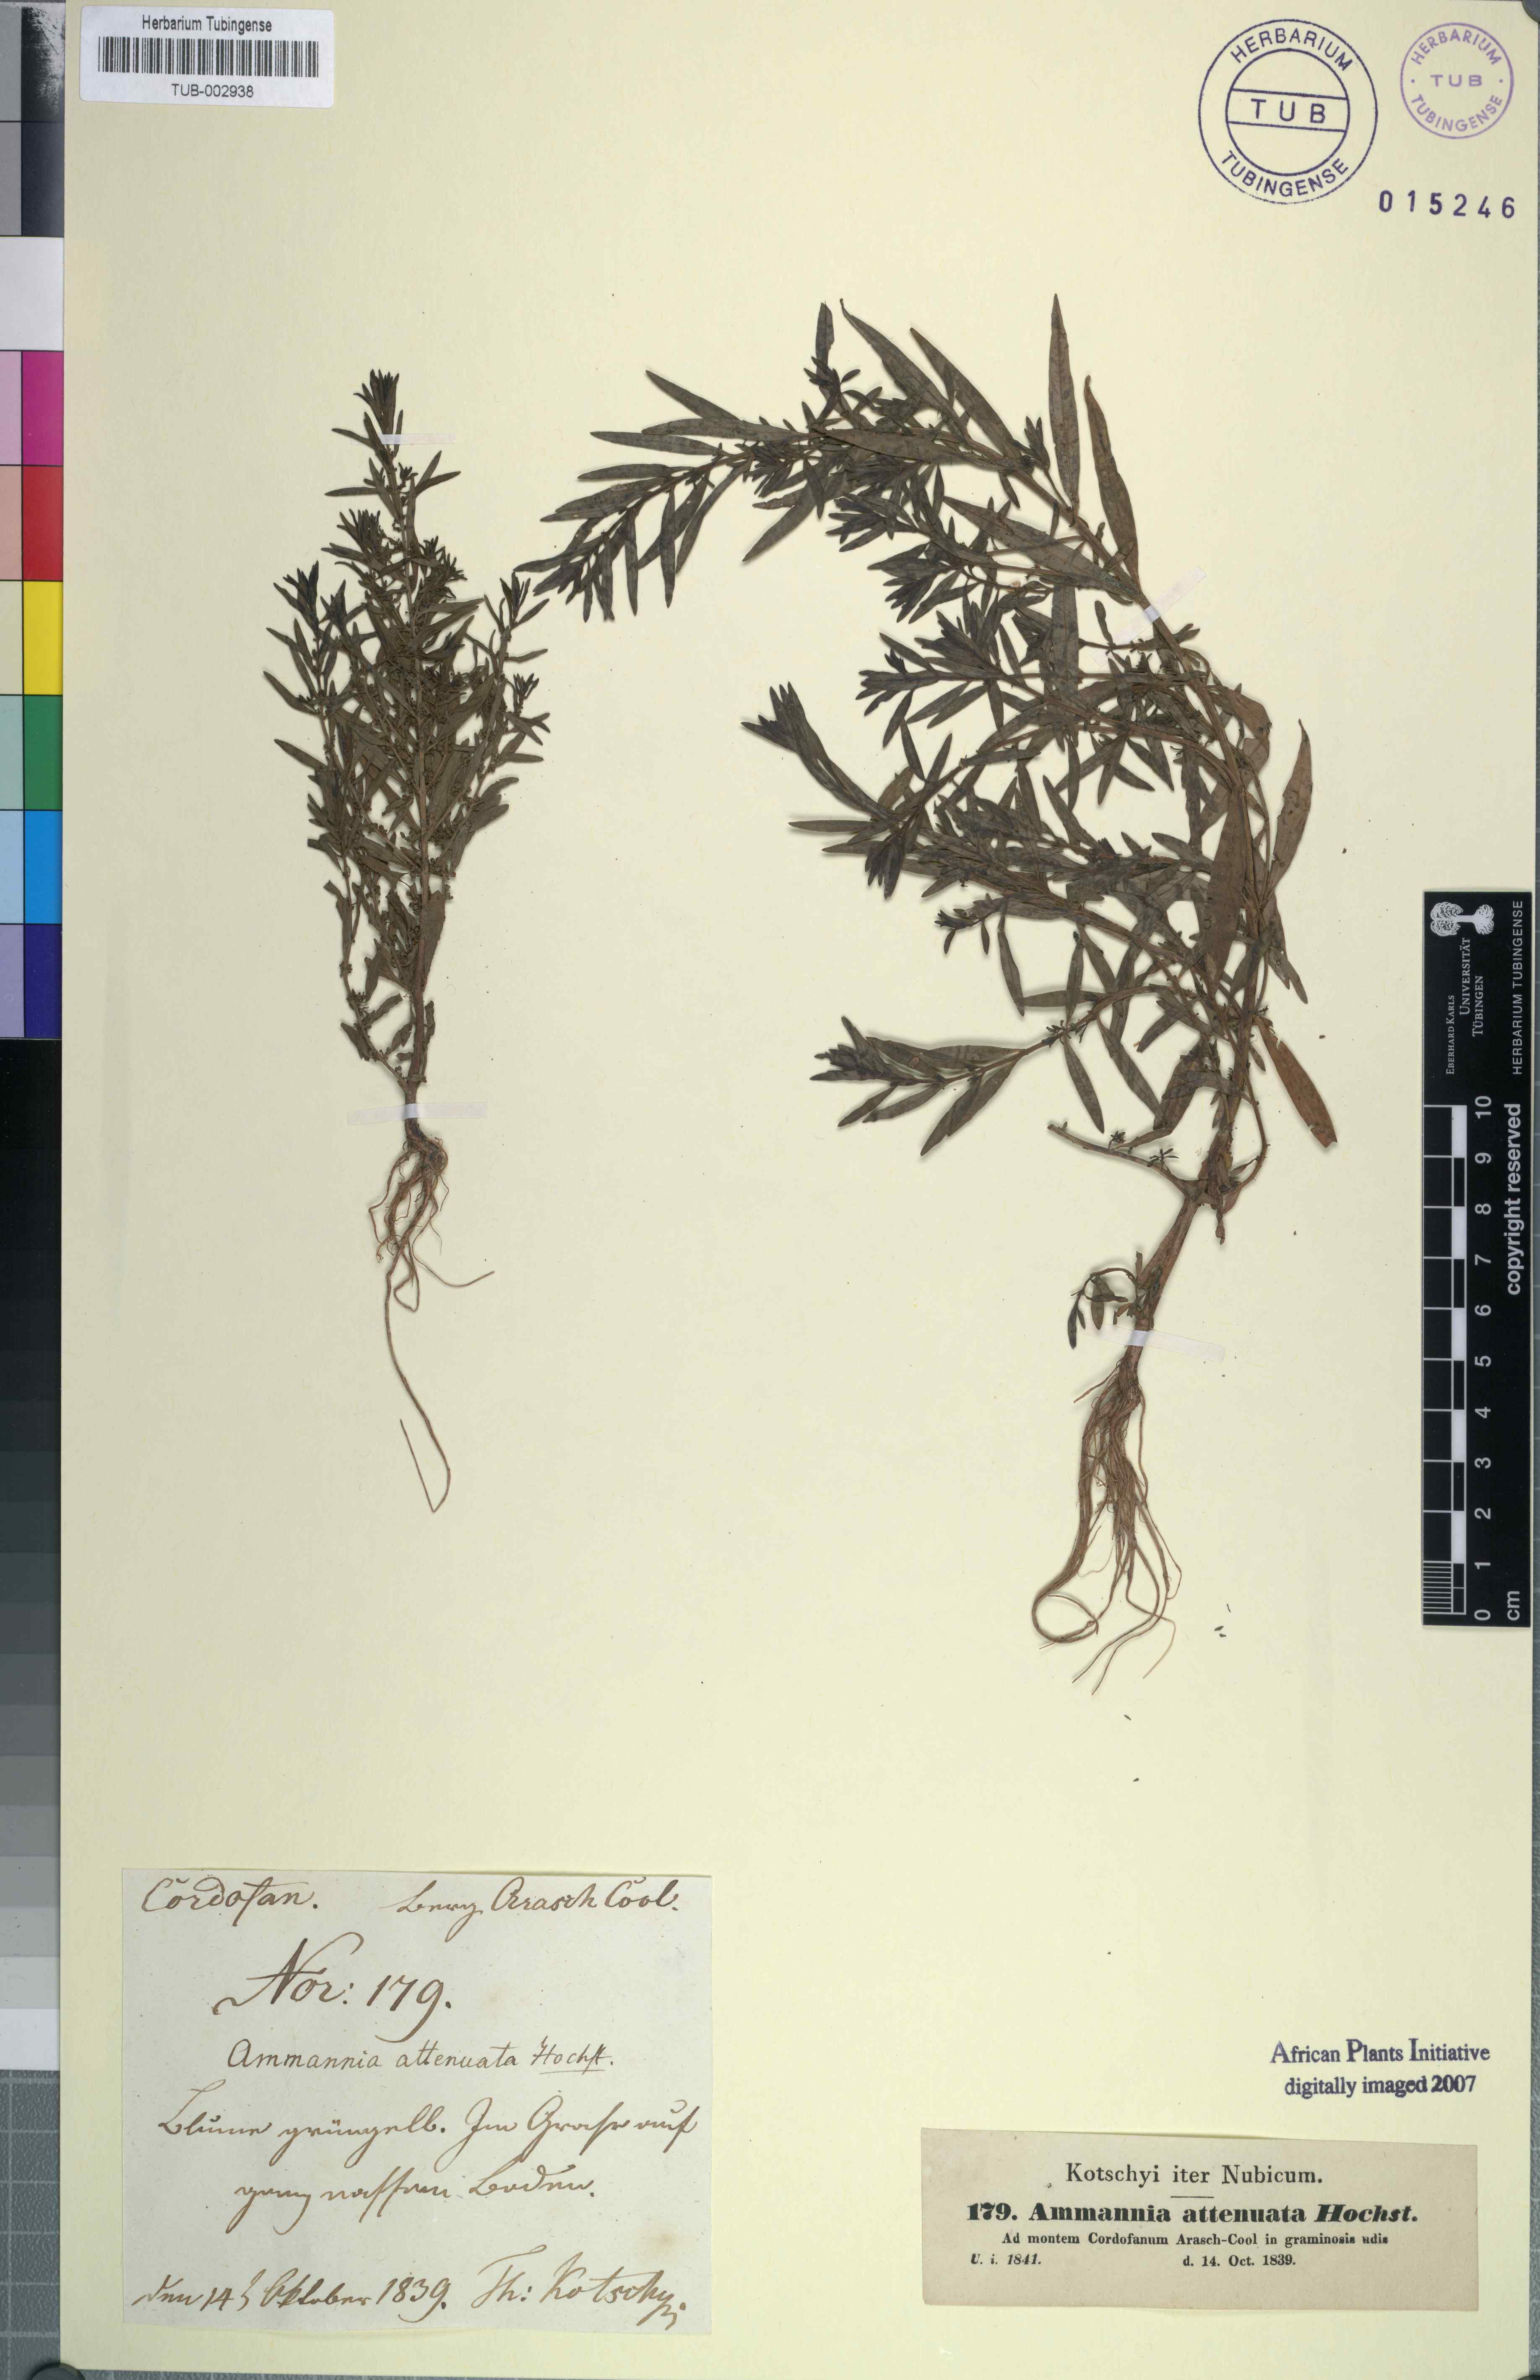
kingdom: Plantae
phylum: Tracheophyta
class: Magnoliopsida
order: Myrtales
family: Lythraceae
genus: Ammannia
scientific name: Ammannia baccifera
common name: Blistering ammania
